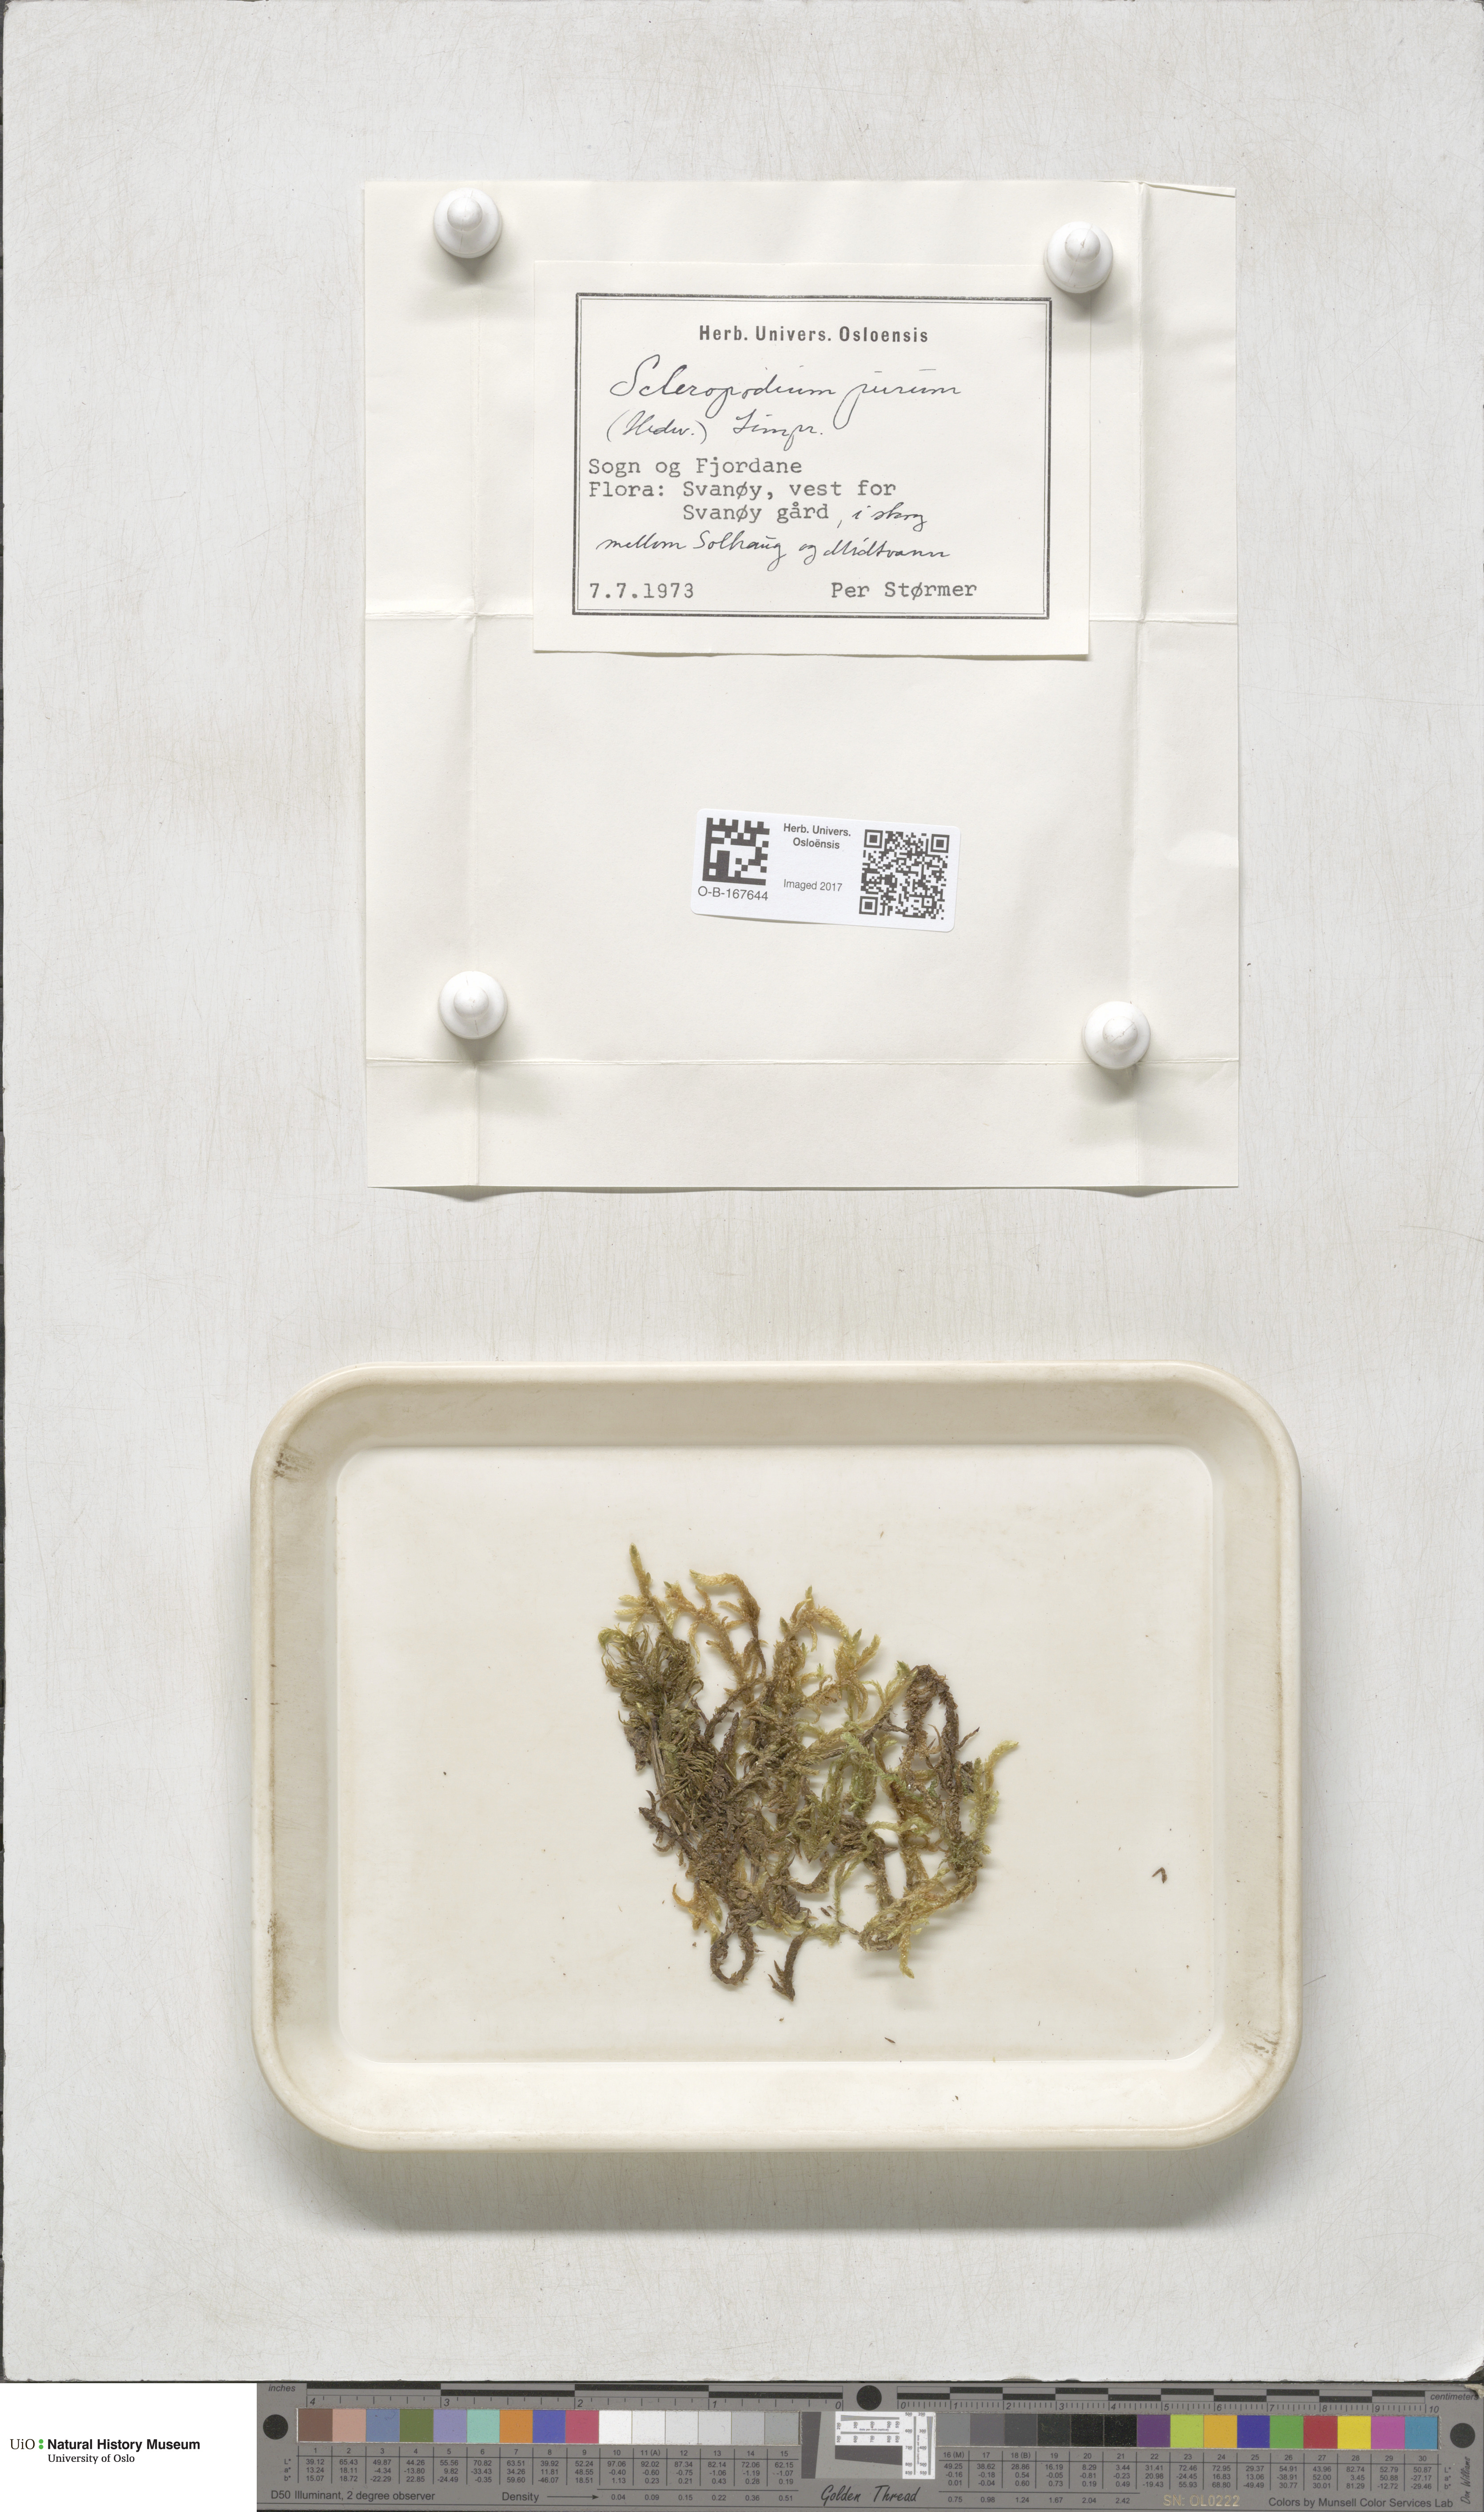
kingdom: Plantae
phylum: Bryophyta
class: Bryopsida
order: Hypnales
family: Brachytheciaceae
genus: Pseudoscleropodium
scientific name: Pseudoscleropodium purum
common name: Neat feather-moss
